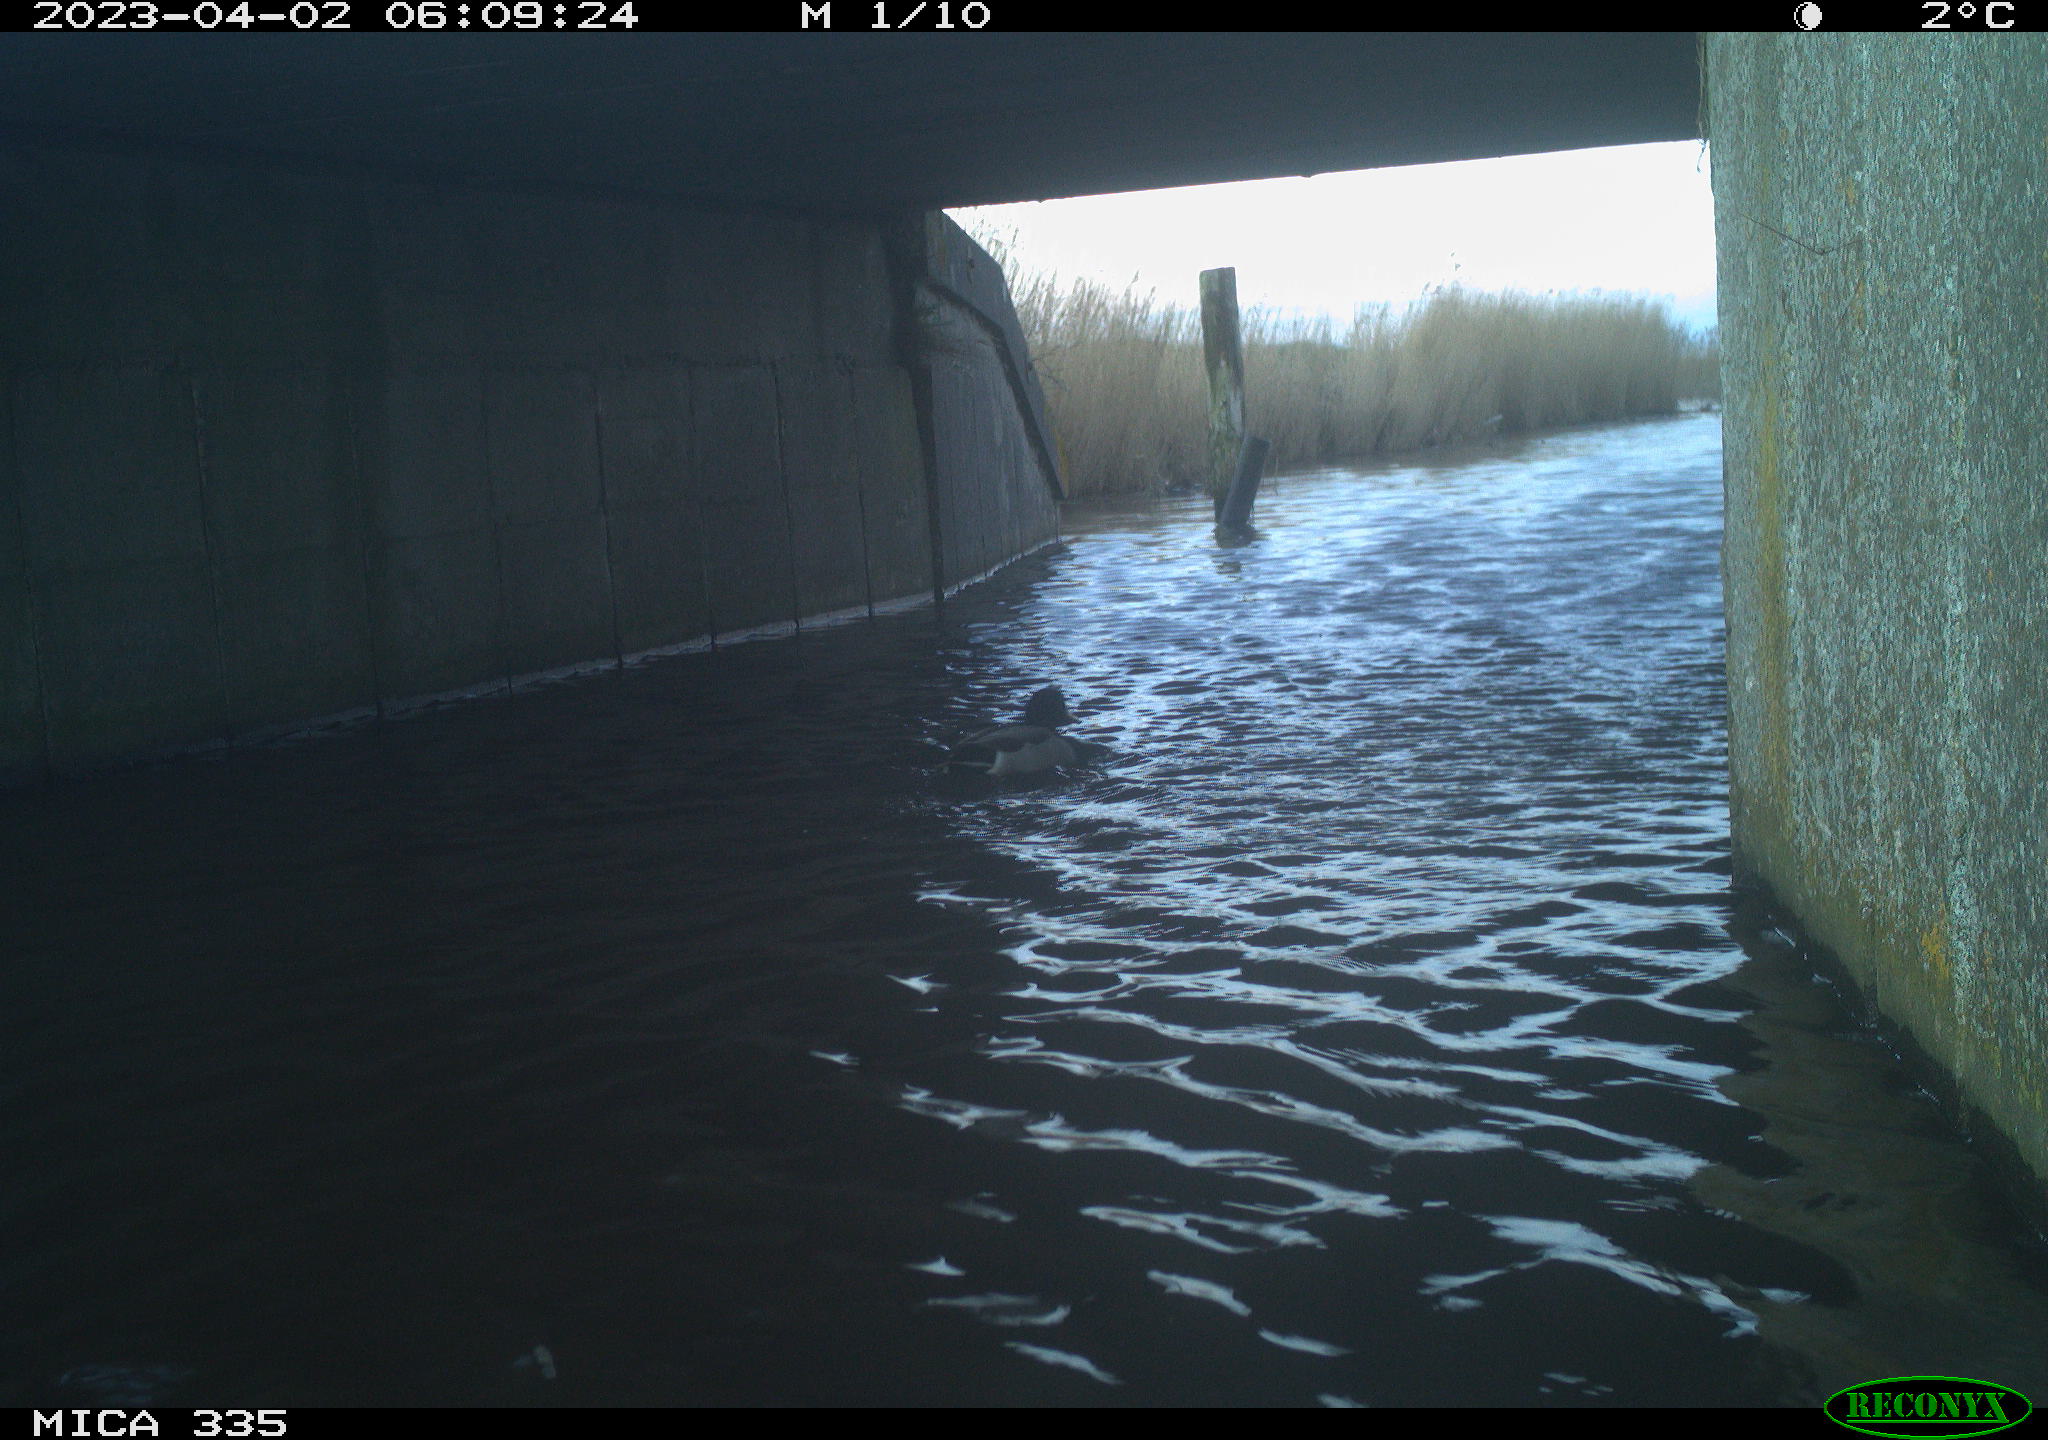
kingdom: Animalia
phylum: Chordata
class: Aves
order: Anseriformes
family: Anatidae
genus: Anas
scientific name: Anas
